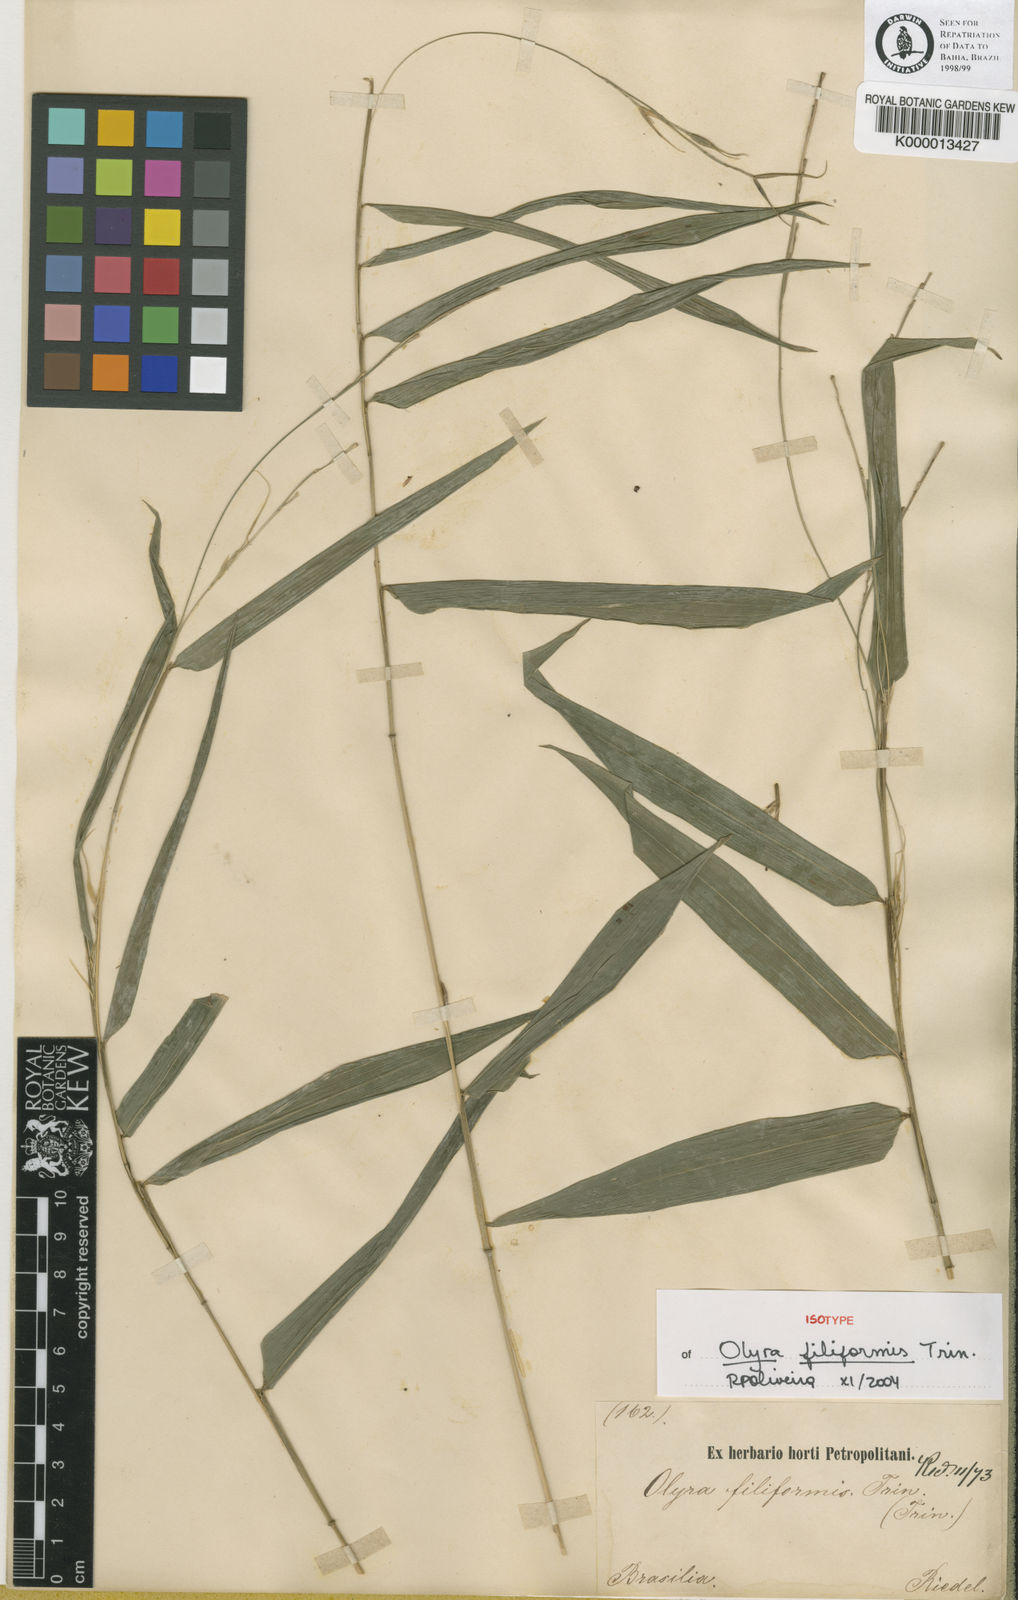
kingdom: Plantae
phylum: Tracheophyta
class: Liliopsida
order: Poales
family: Poaceae
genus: Olyra
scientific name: Olyra filiformis
